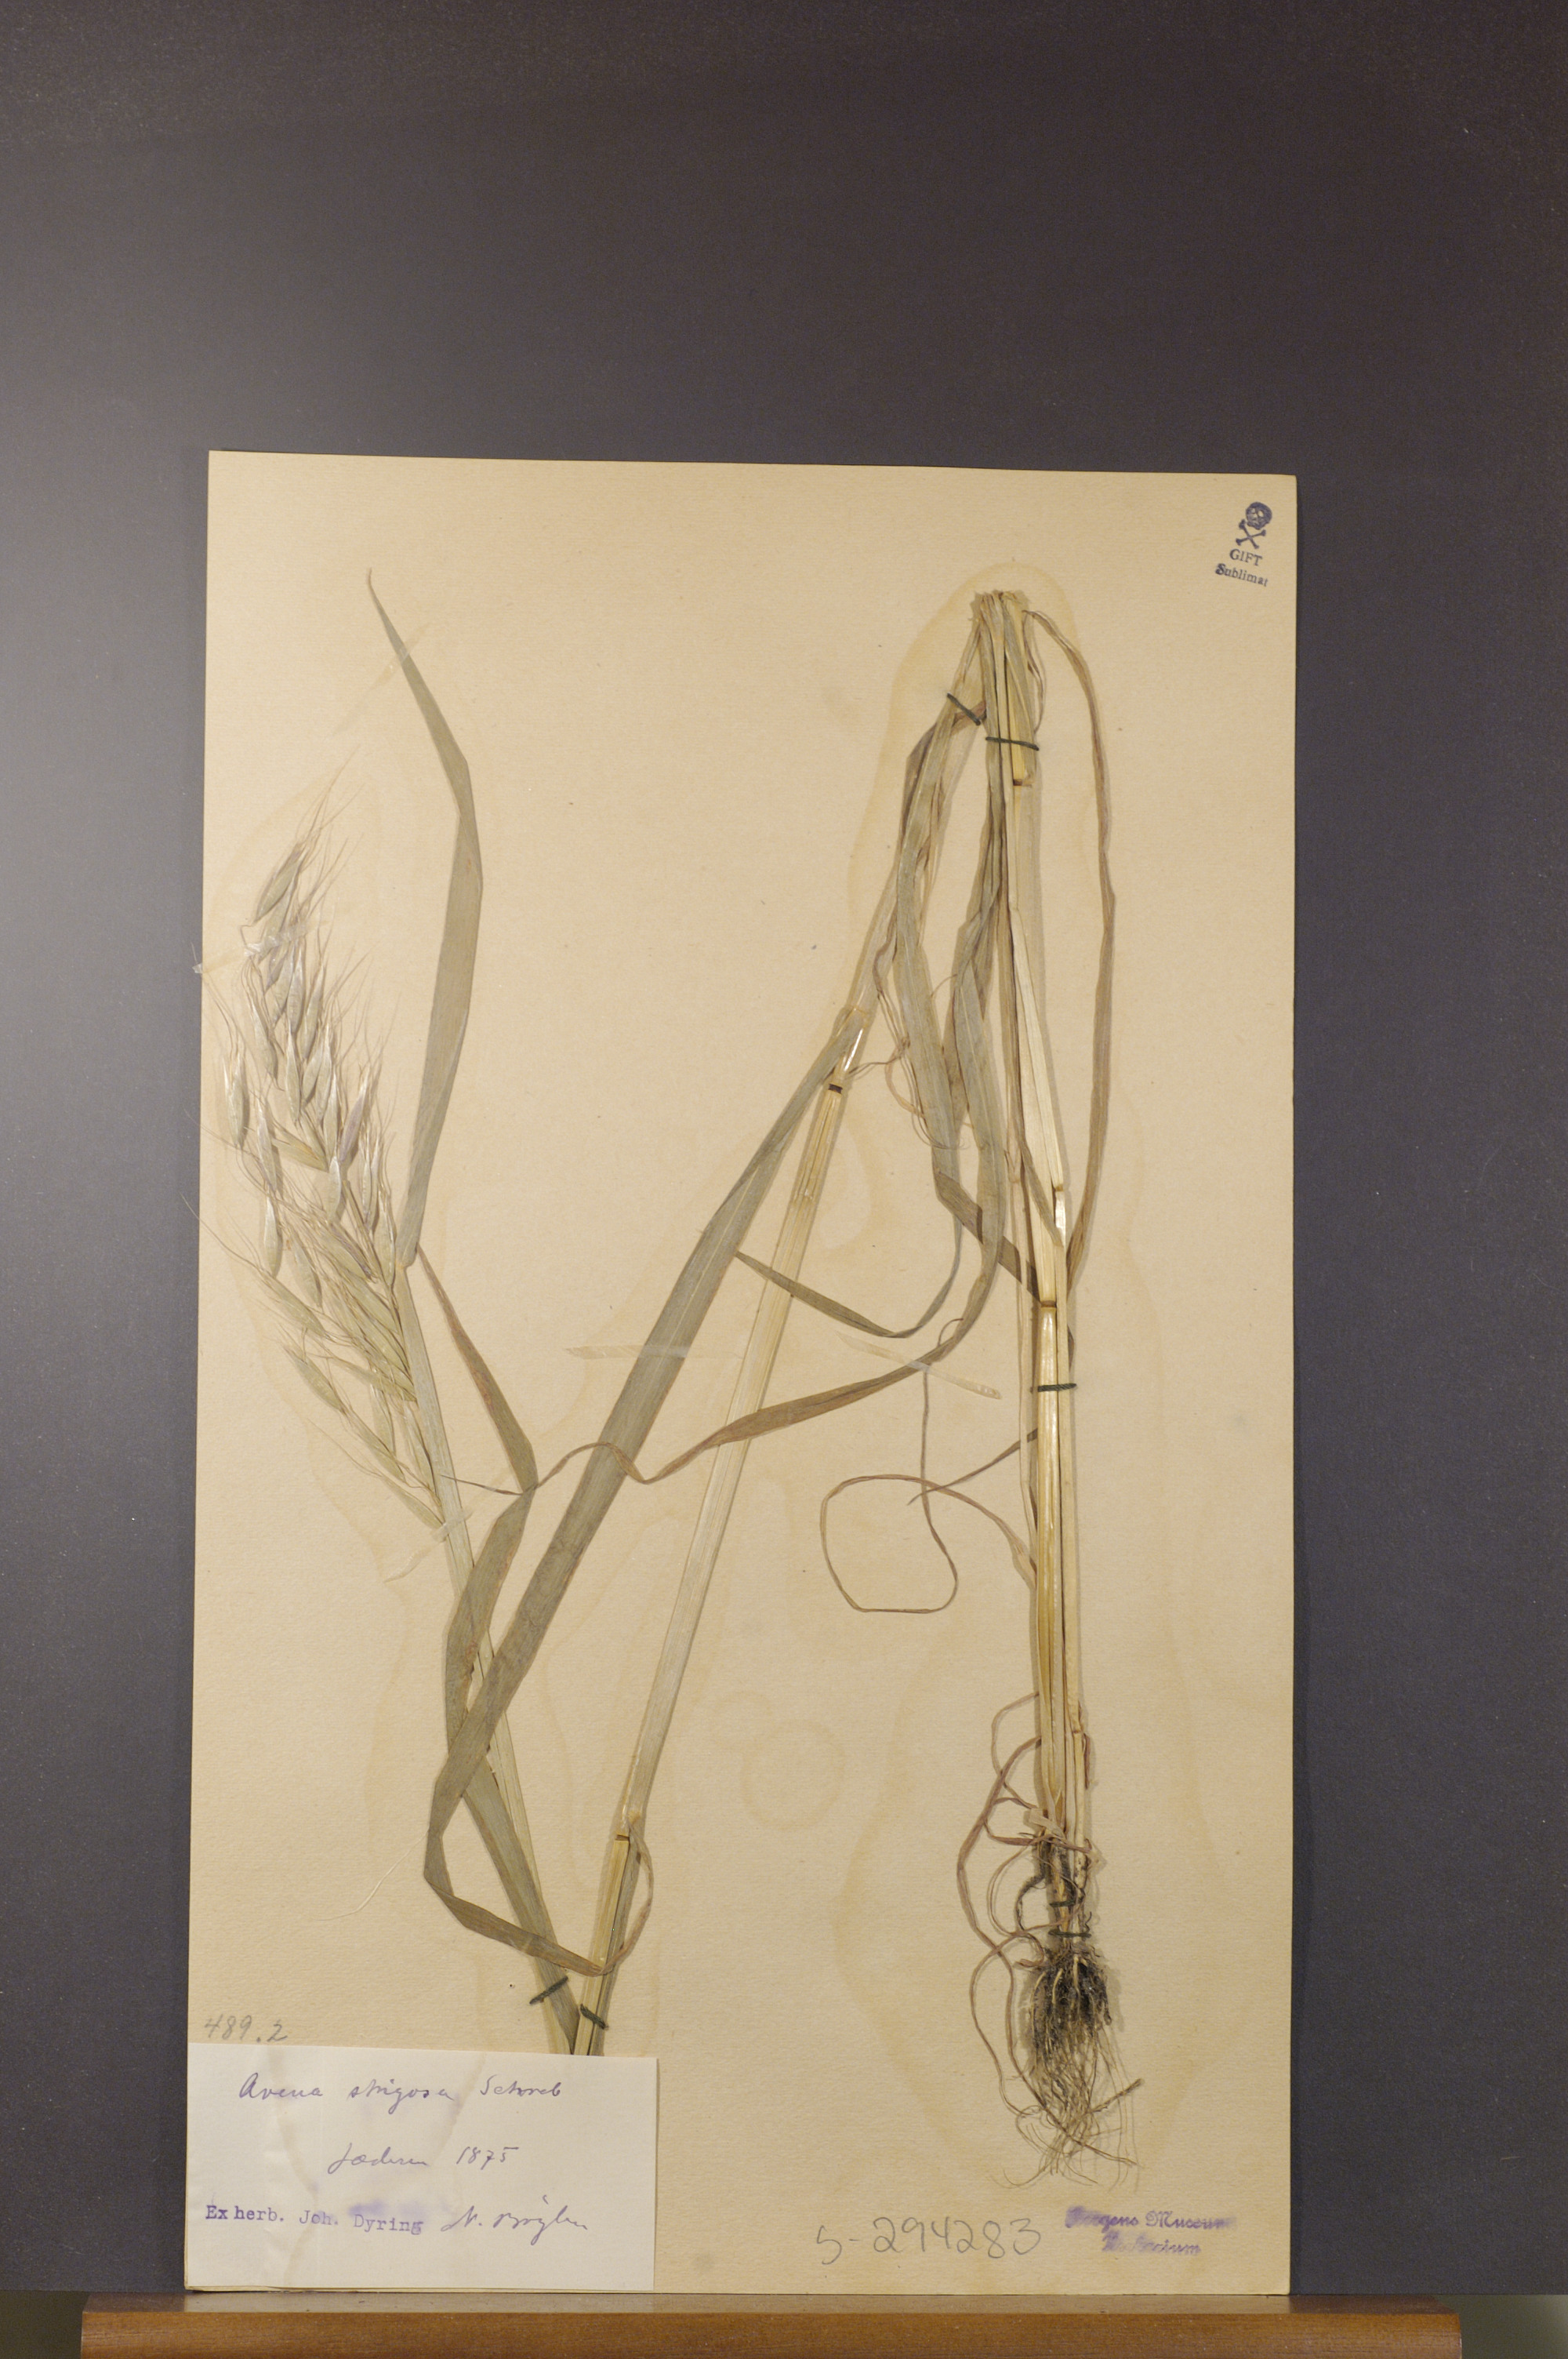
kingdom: Plantae
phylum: Tracheophyta
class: Liliopsida
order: Poales
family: Poaceae
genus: Avena
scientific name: Avena strigosa
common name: Bristle oat
